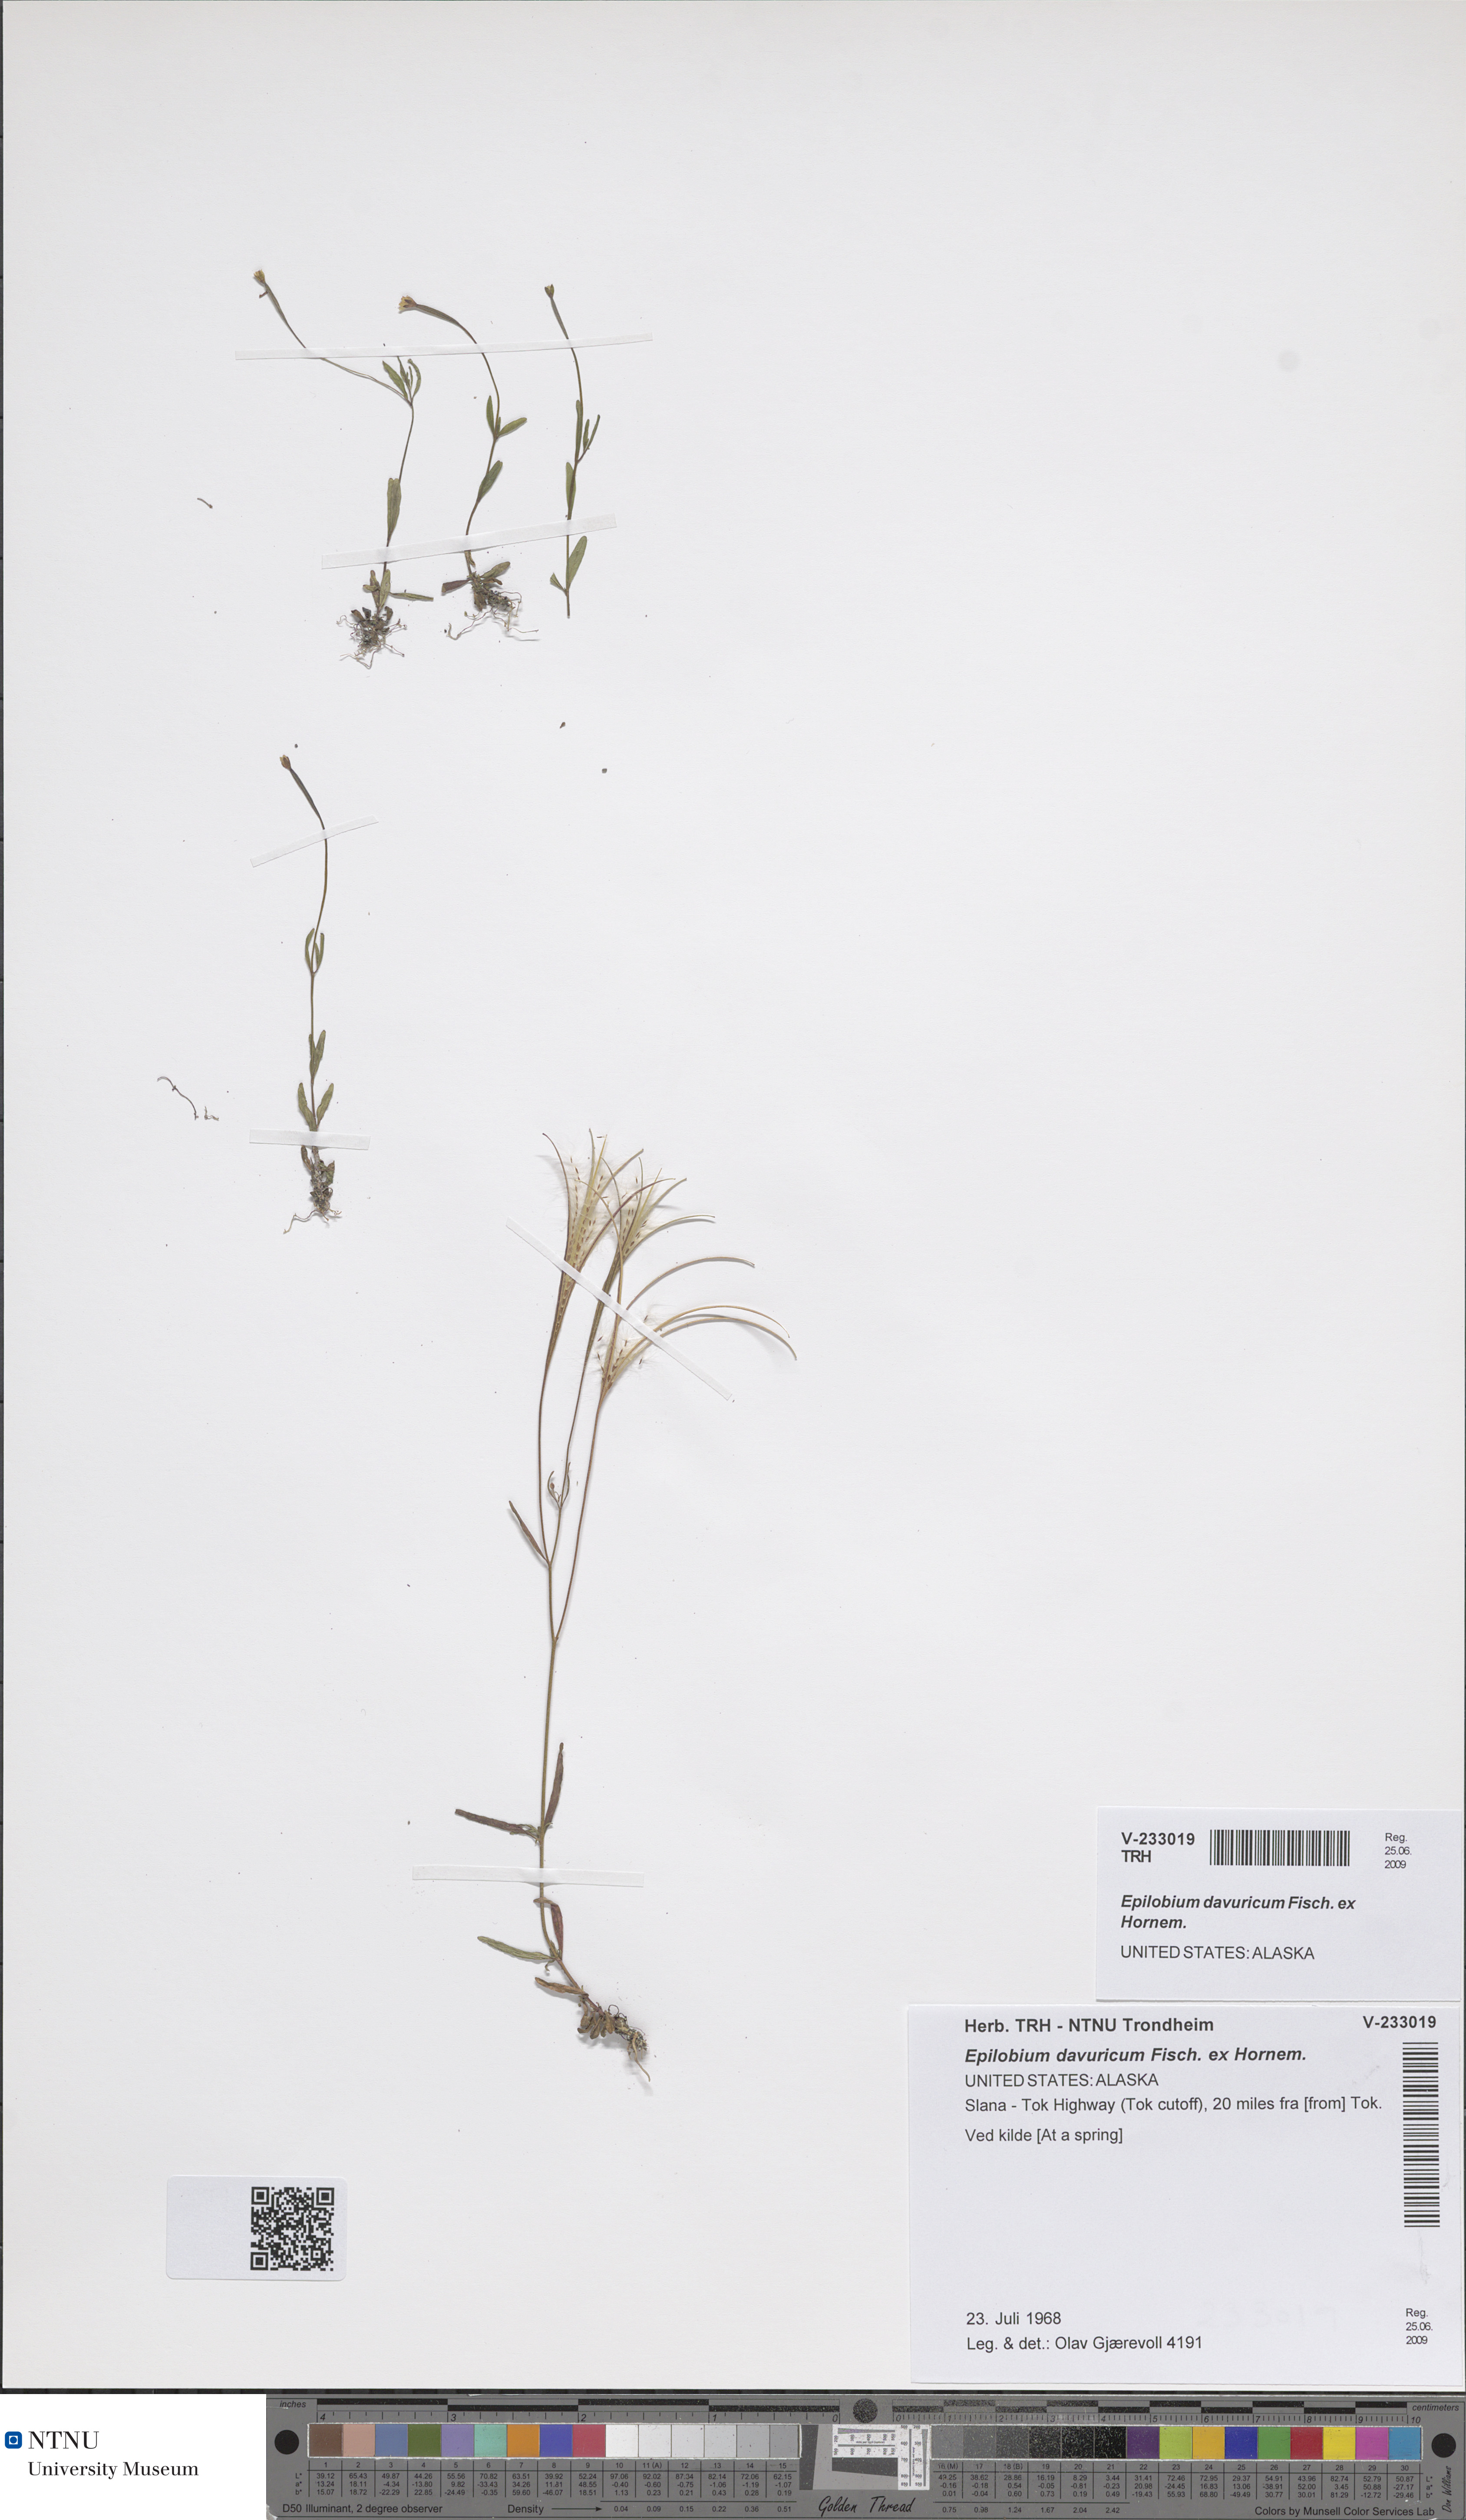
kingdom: Plantae
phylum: Tracheophyta
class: Magnoliopsida
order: Myrtales
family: Onagraceae
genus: Epilobium
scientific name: Epilobium davuricum
